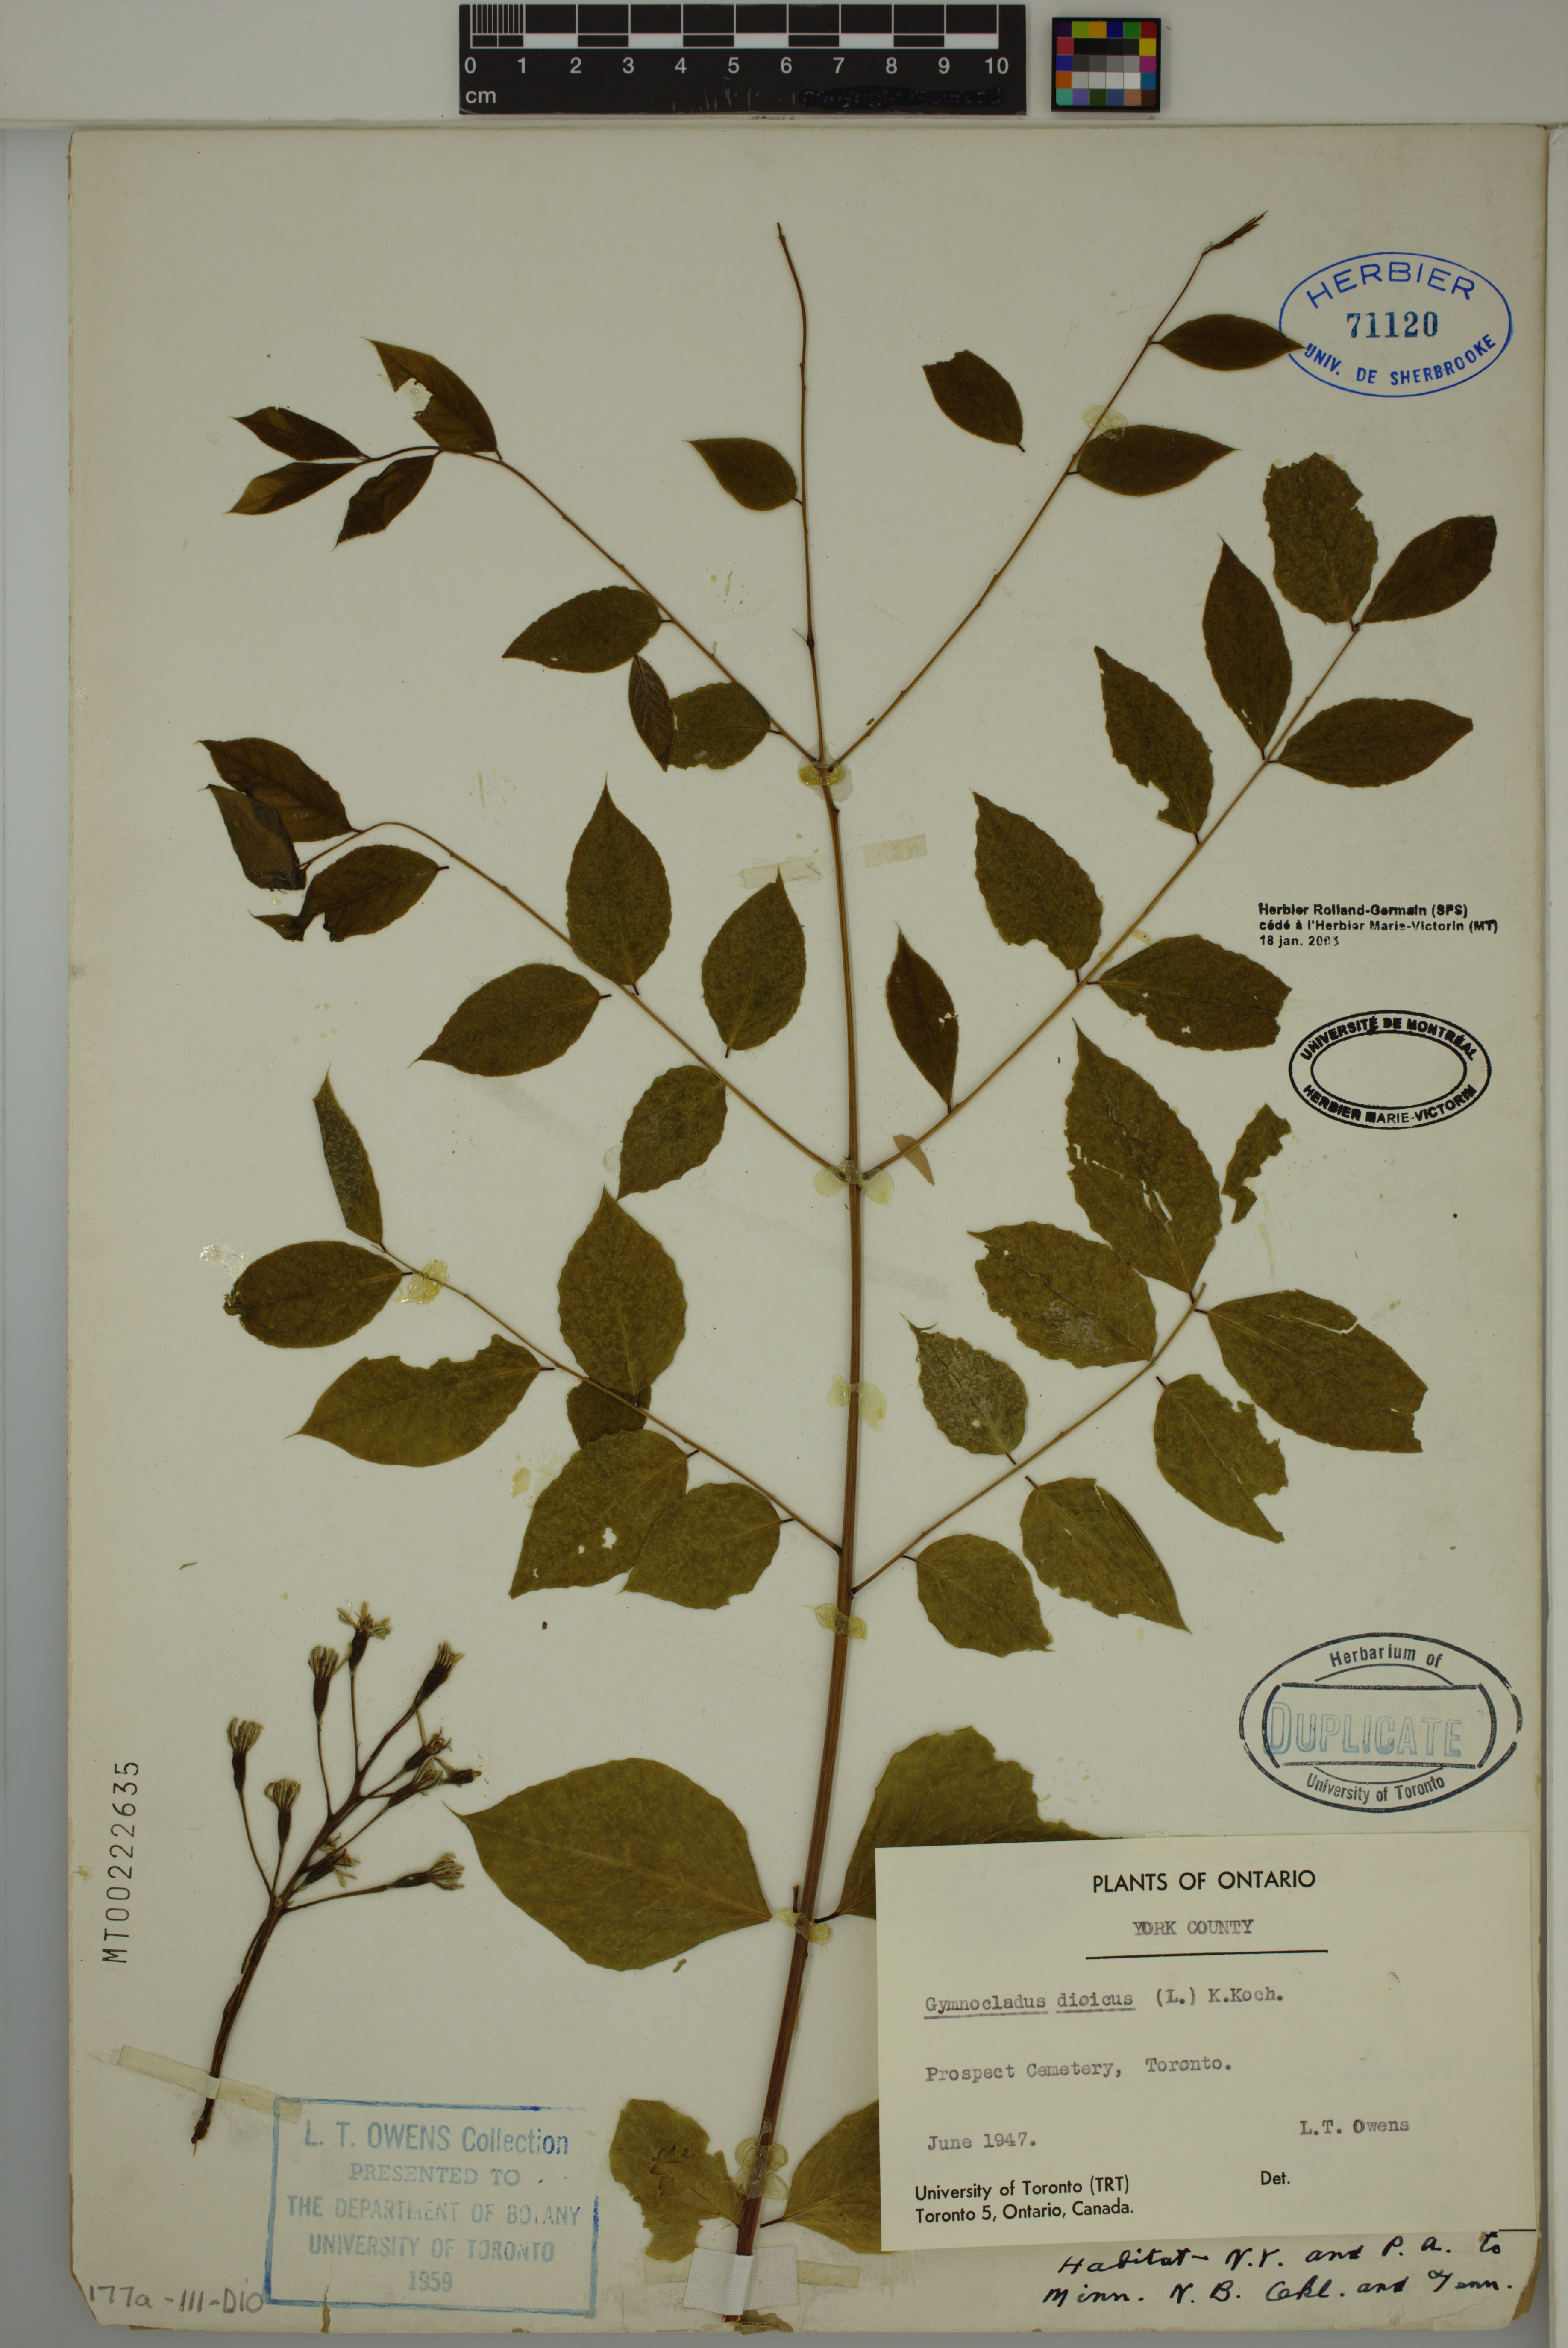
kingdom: Plantae
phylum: Tracheophyta
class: Magnoliopsida
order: Fabales
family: Fabaceae
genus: Gymnocladus
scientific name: Gymnocladus dioicus
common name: Kentucky coffee-tree
